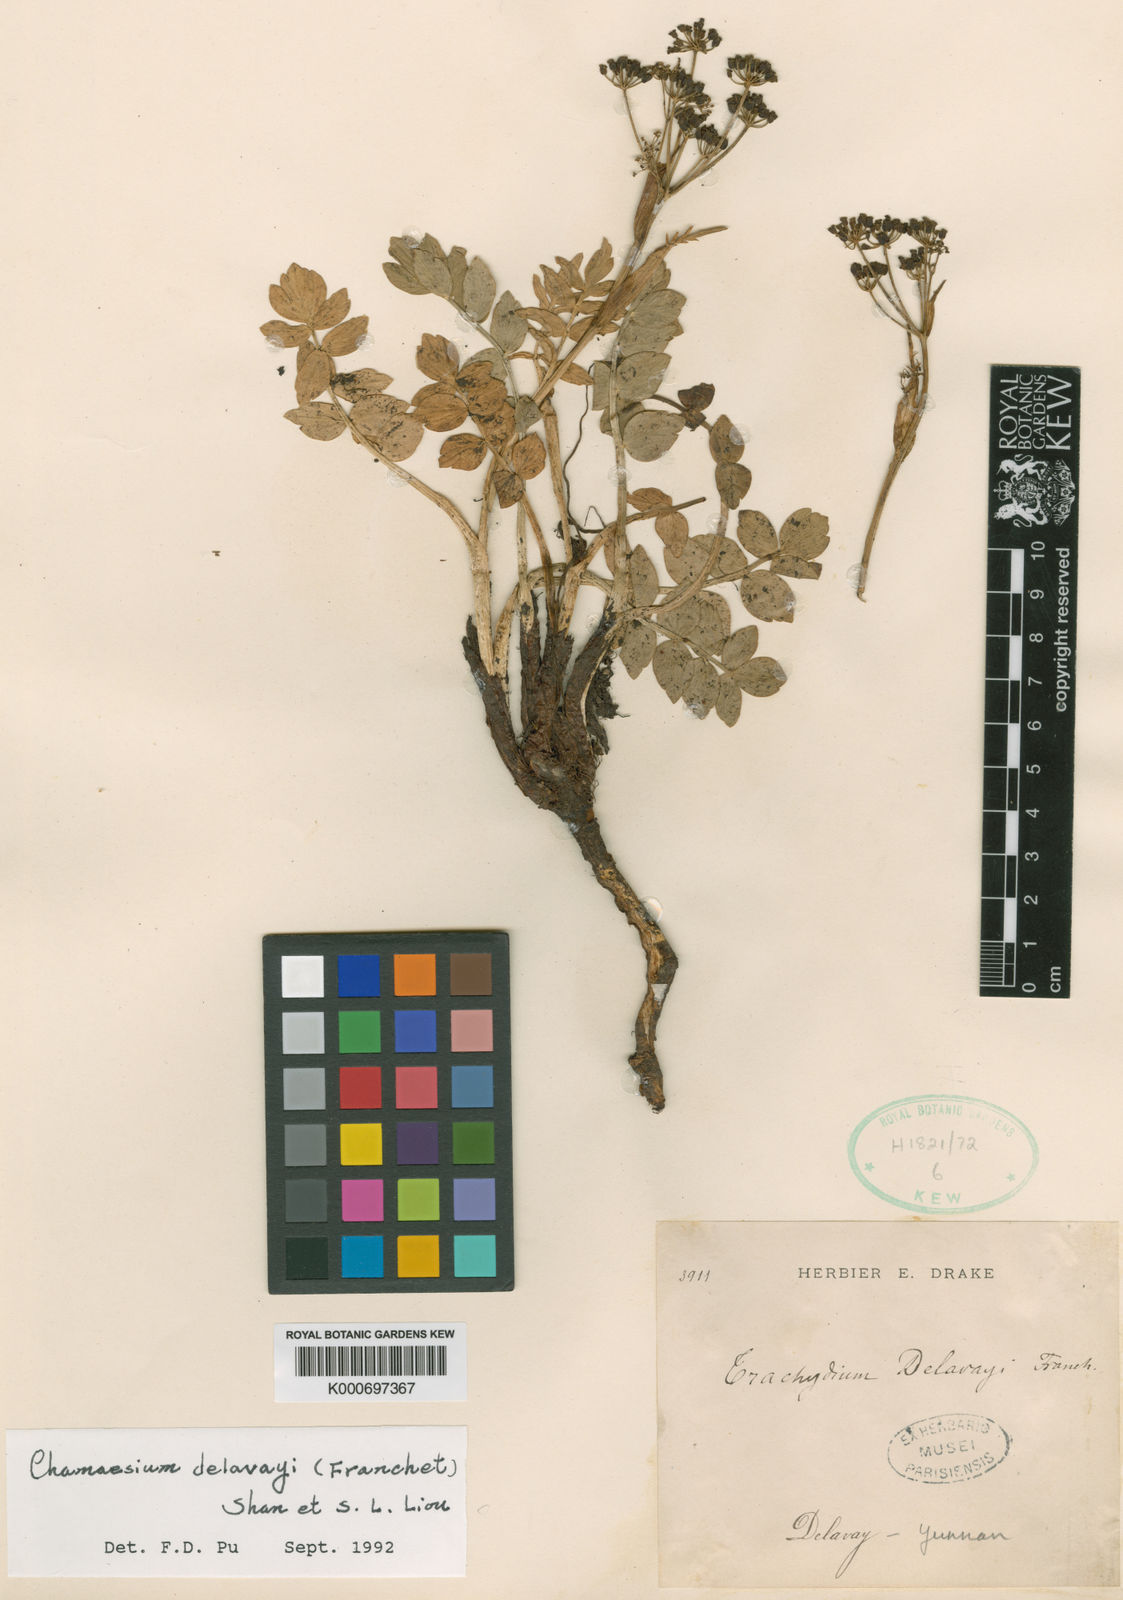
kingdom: Plantae
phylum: Tracheophyta
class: Magnoliopsida
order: Apiales
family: Apiaceae
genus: Chamaesium
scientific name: Chamaesium delavayi
